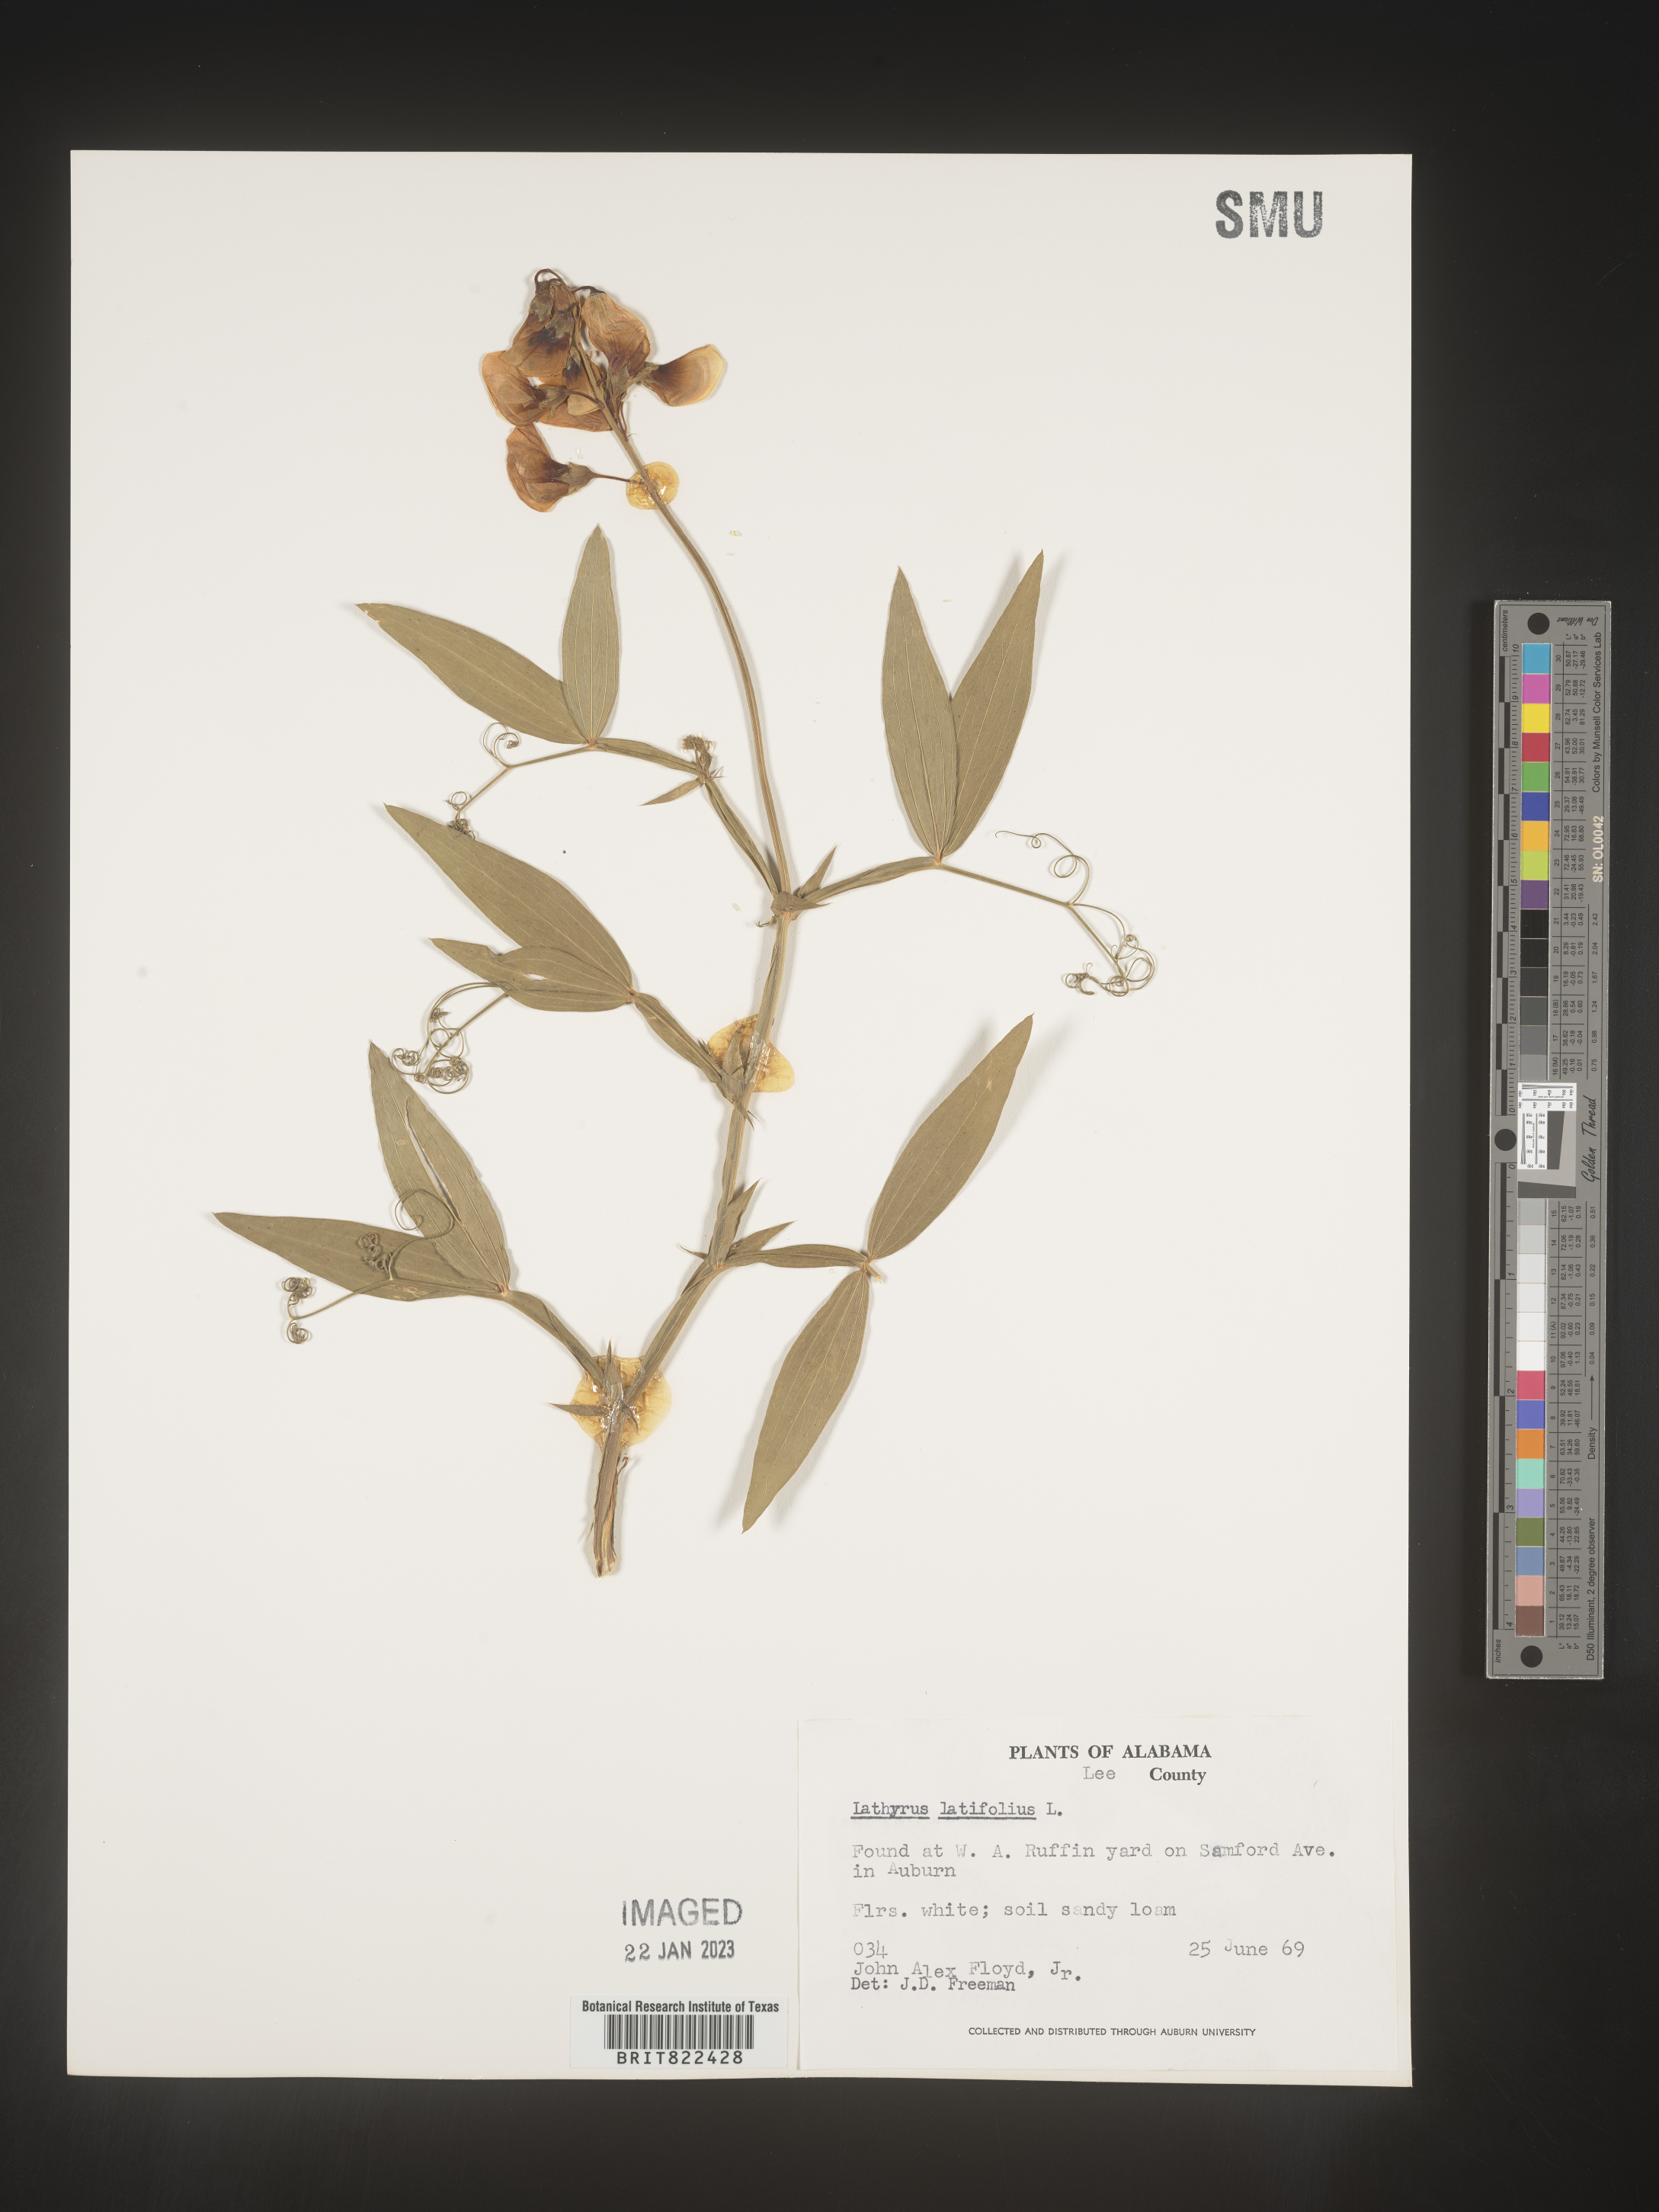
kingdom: Plantae
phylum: Tracheophyta
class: Magnoliopsida
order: Fabales
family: Fabaceae
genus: Lathyrus
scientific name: Lathyrus
